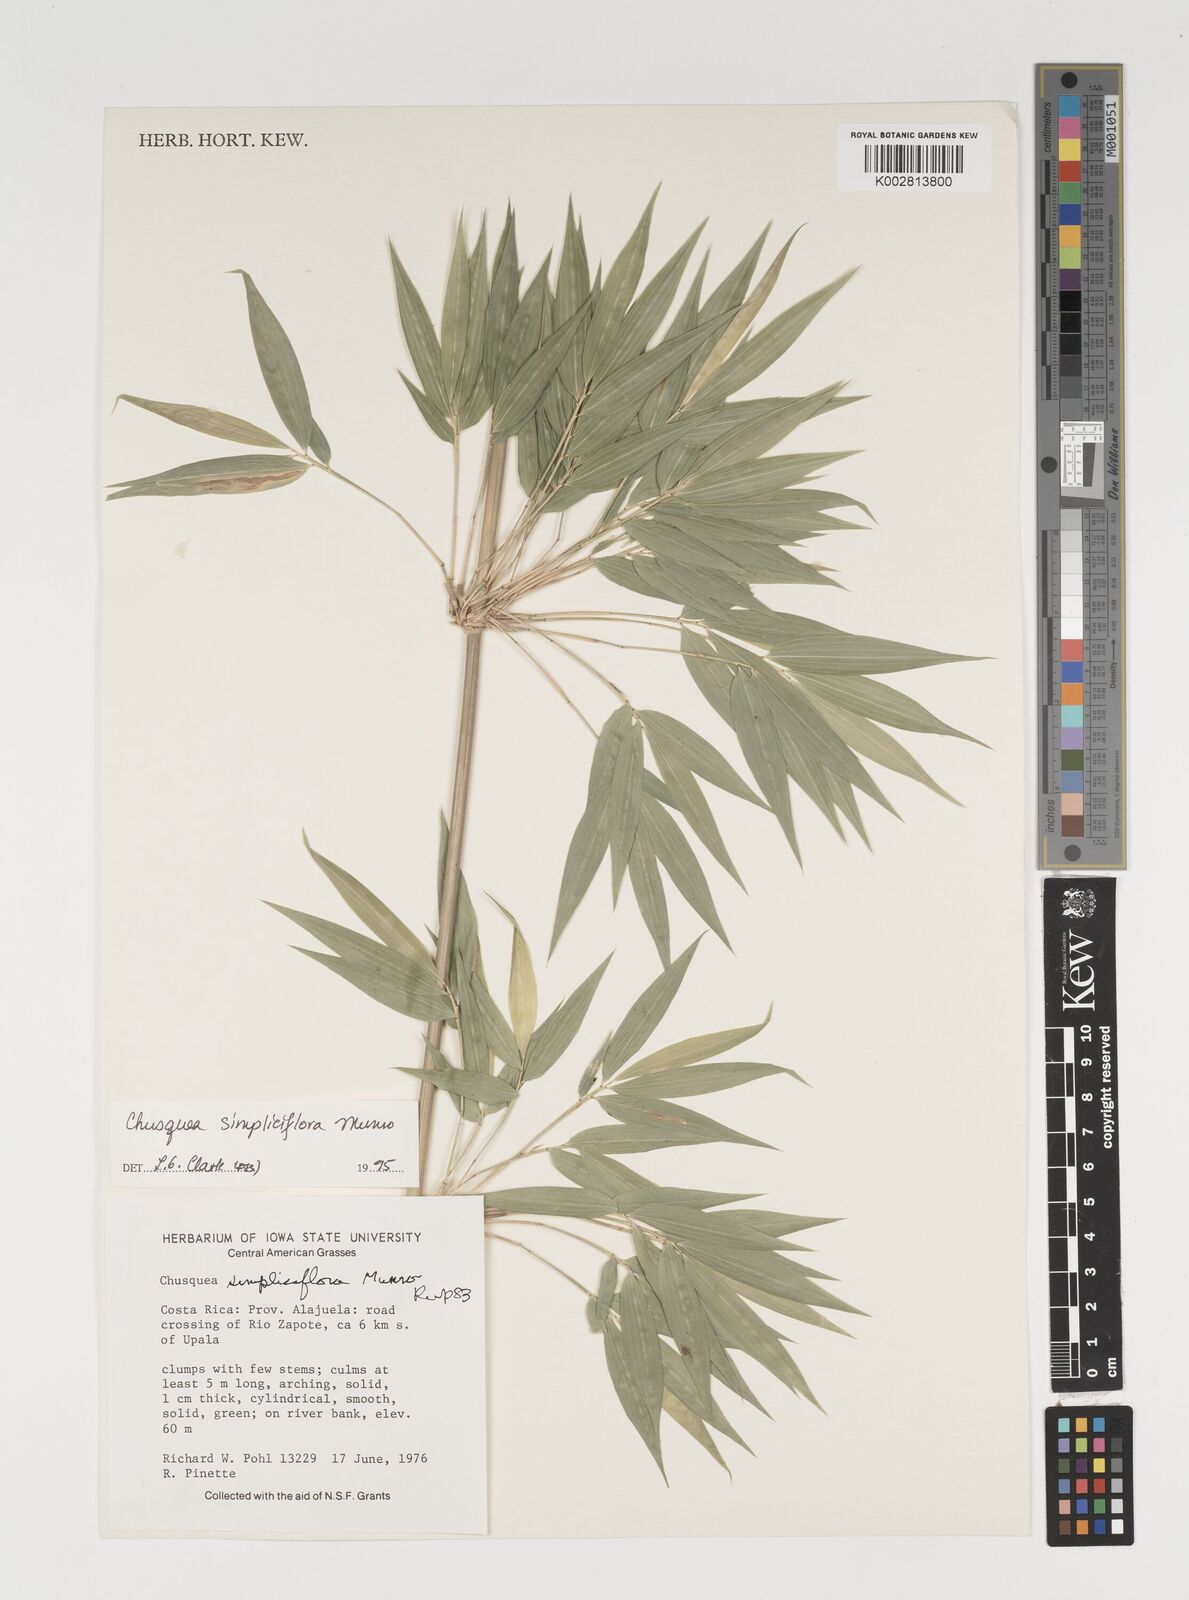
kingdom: Plantae
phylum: Tracheophyta
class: Liliopsida
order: Poales
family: Poaceae
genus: Chusquea
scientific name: Chusquea simpliciflora
